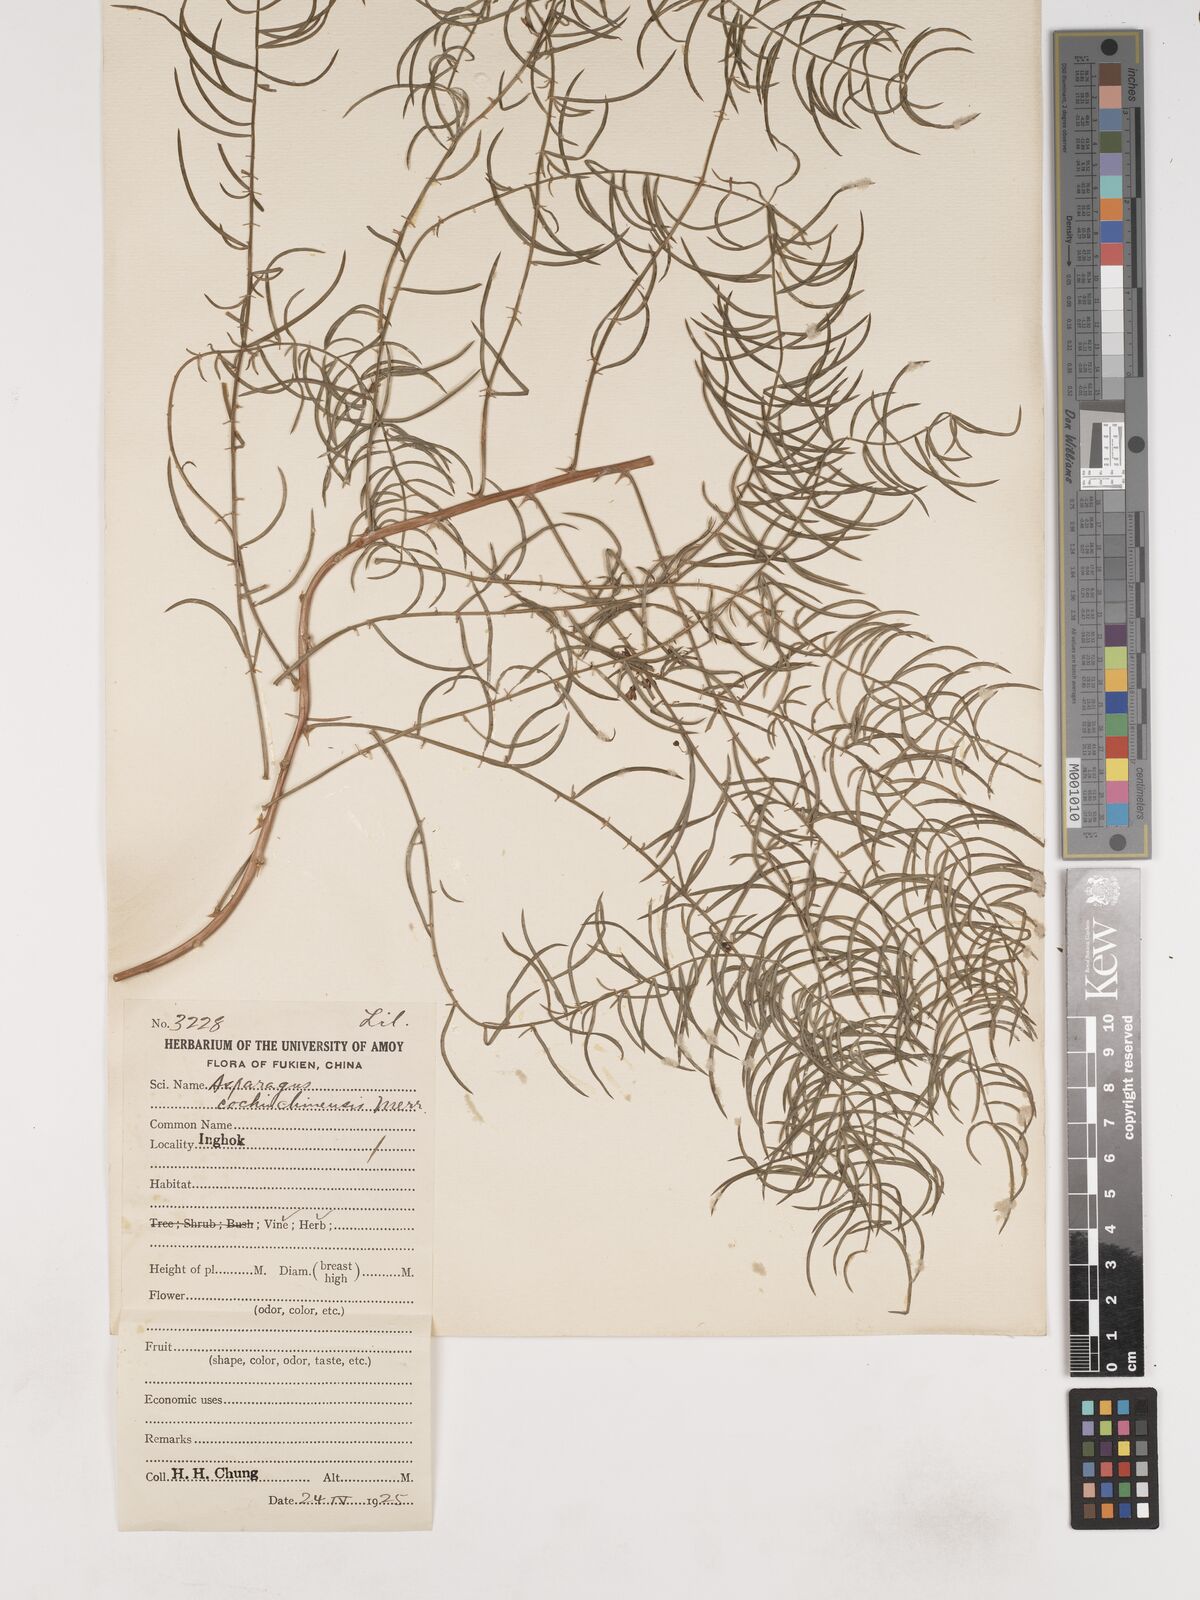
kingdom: Plantae
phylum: Tracheophyta
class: Liliopsida
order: Asparagales
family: Asparagaceae
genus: Asparagus
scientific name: Asparagus cochinchinensis
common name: Chinese asparagus
